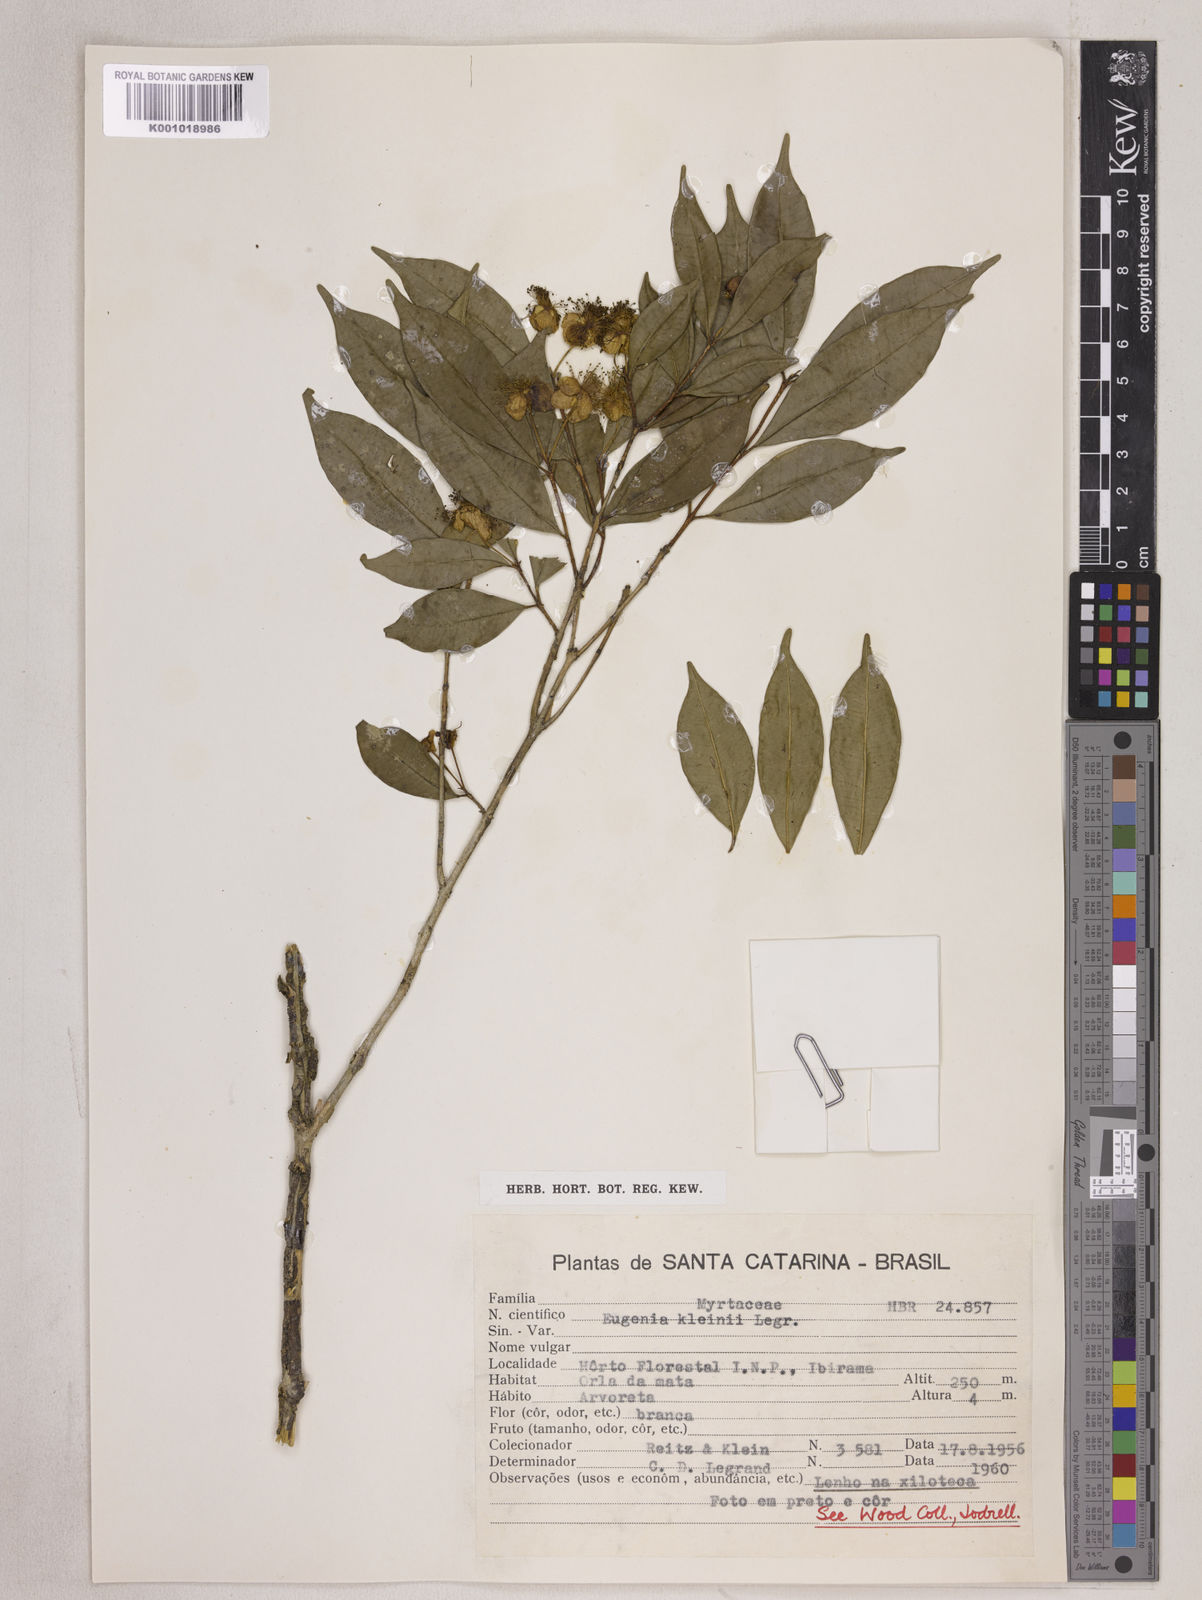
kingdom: Plantae
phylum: Tracheophyta
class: Magnoliopsida
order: Myrtales
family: Myrtaceae
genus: Eugenia
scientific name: Eugenia kleinii
